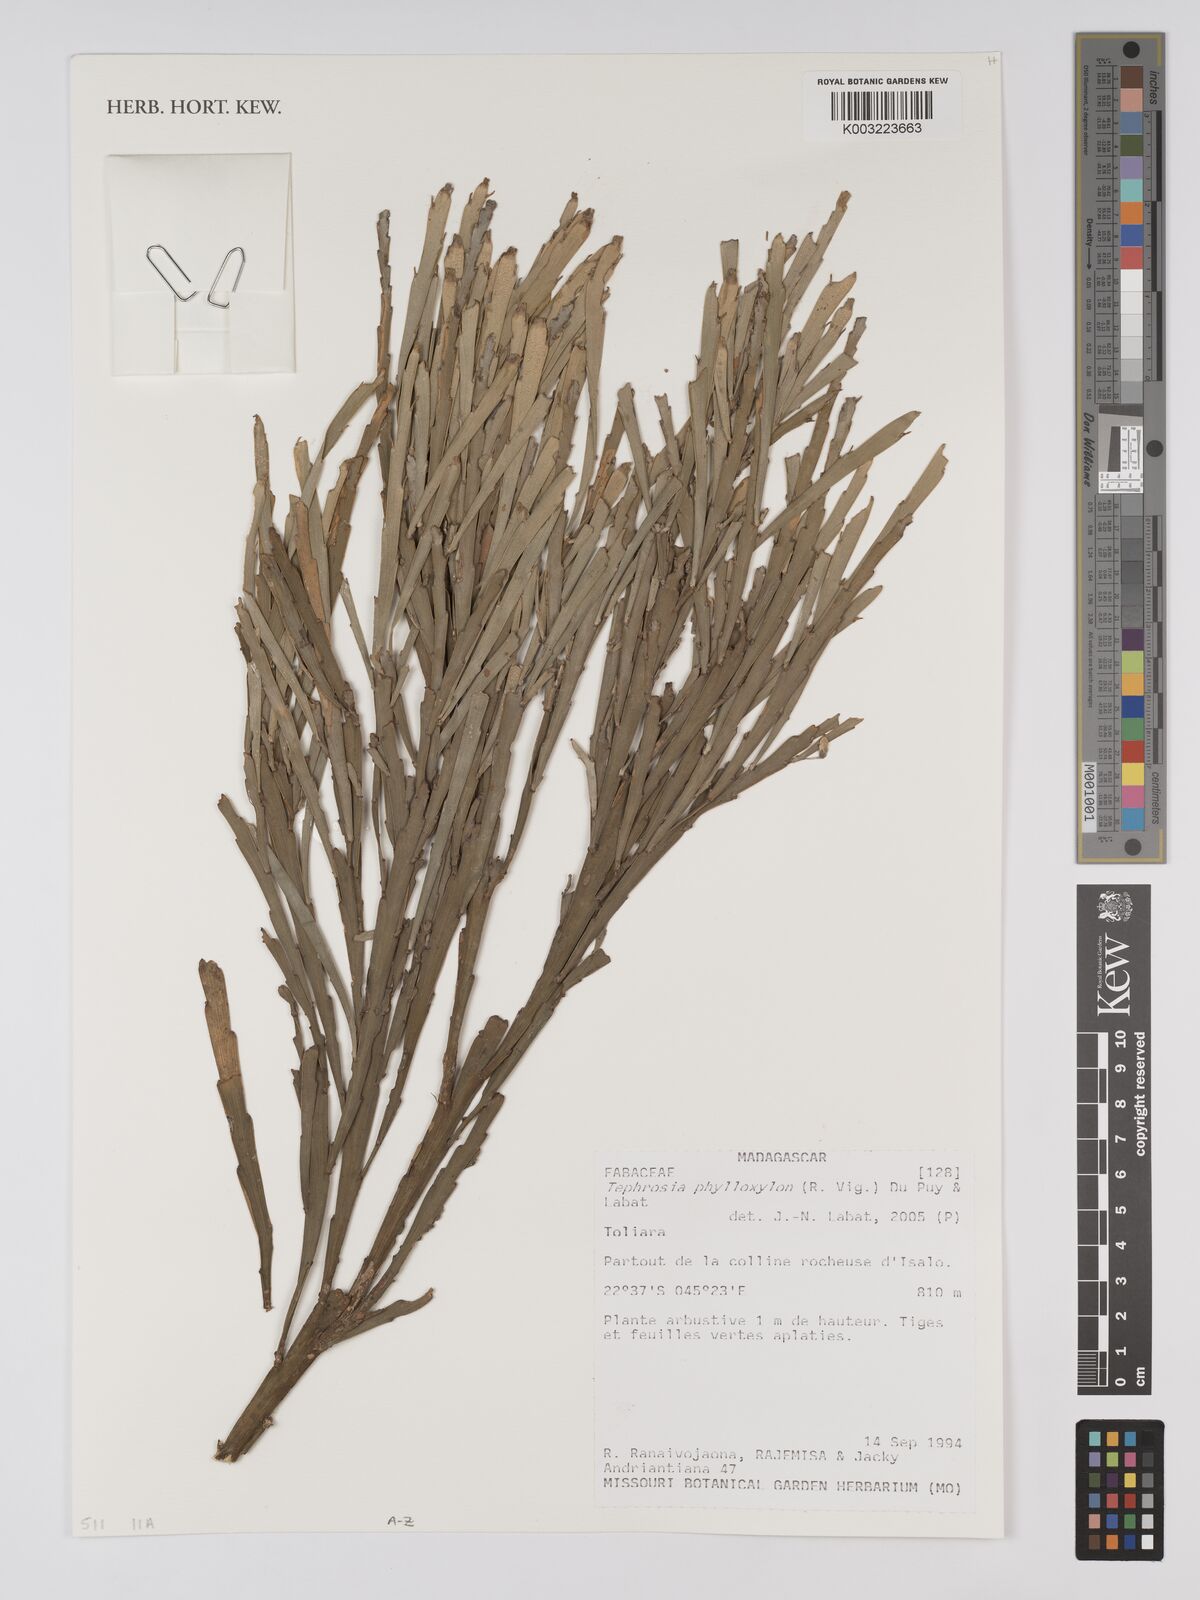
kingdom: Plantae
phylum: Tracheophyta
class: Magnoliopsida
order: Fabales
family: Fabaceae
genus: Tephrosia
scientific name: Tephrosia phylloxylon
